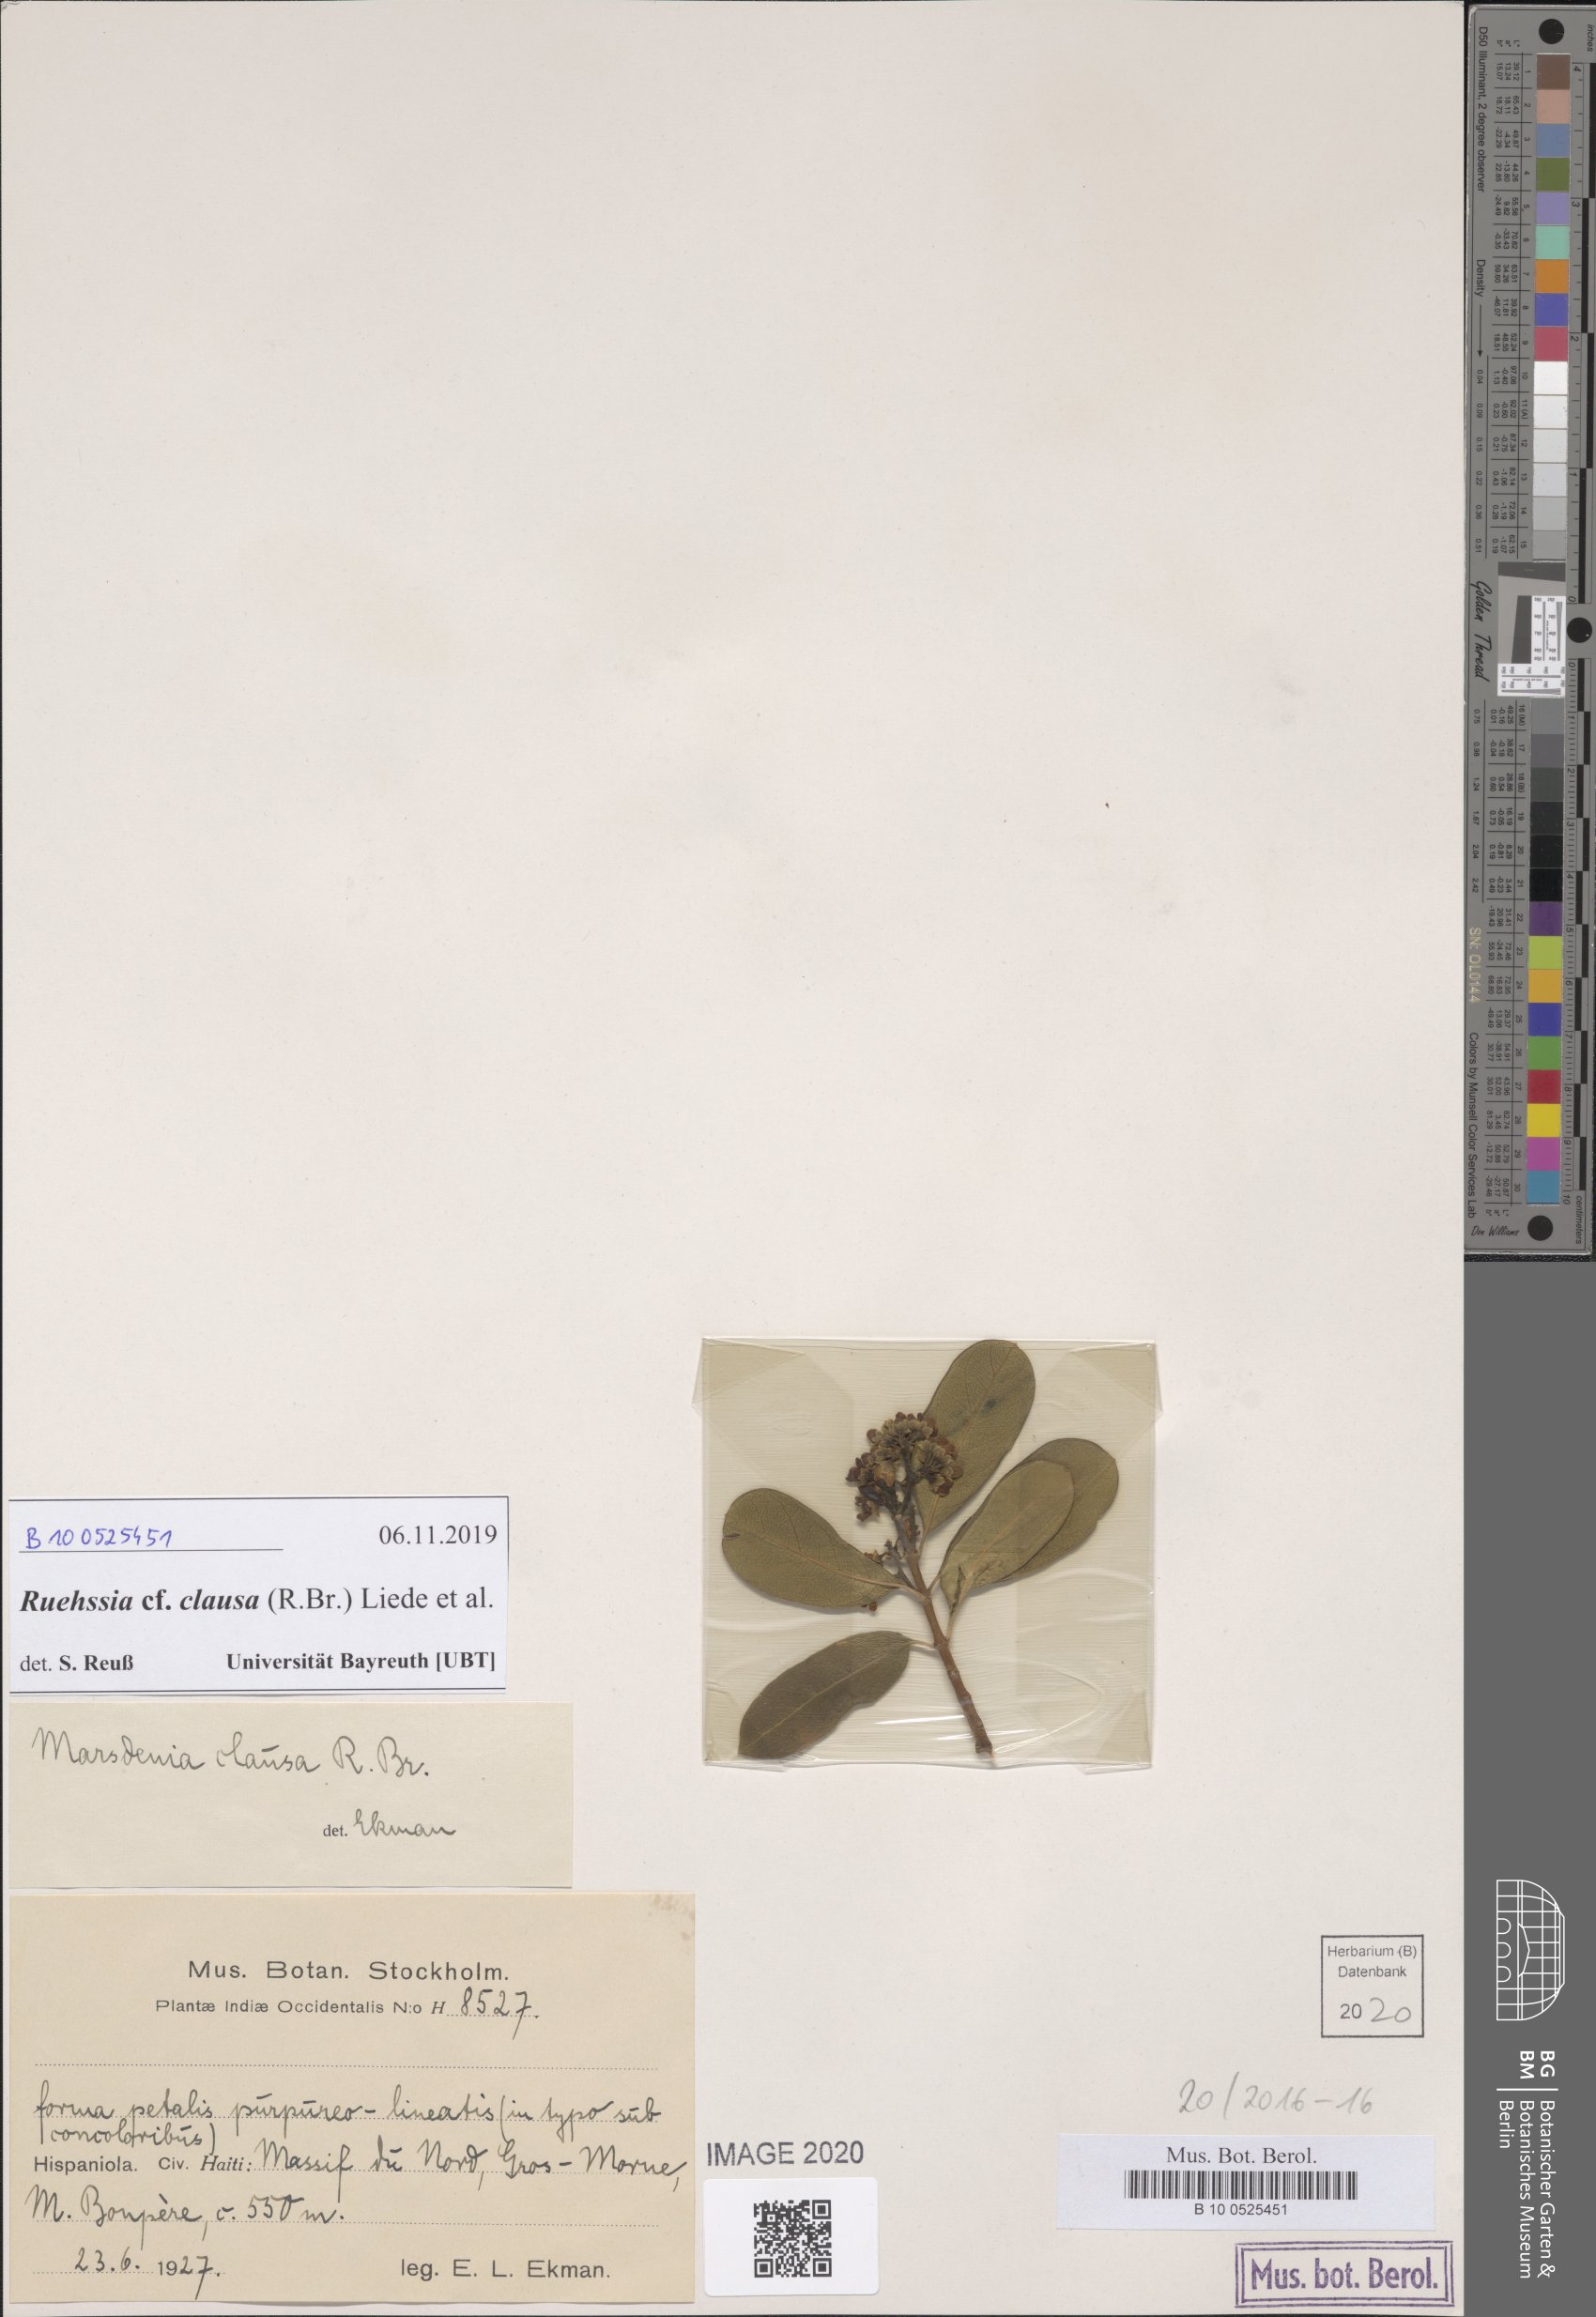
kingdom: Plantae
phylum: Tracheophyta
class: Magnoliopsida
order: Gentianales
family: Apocynaceae
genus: Ruehssia
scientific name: Ruehssia clausa
